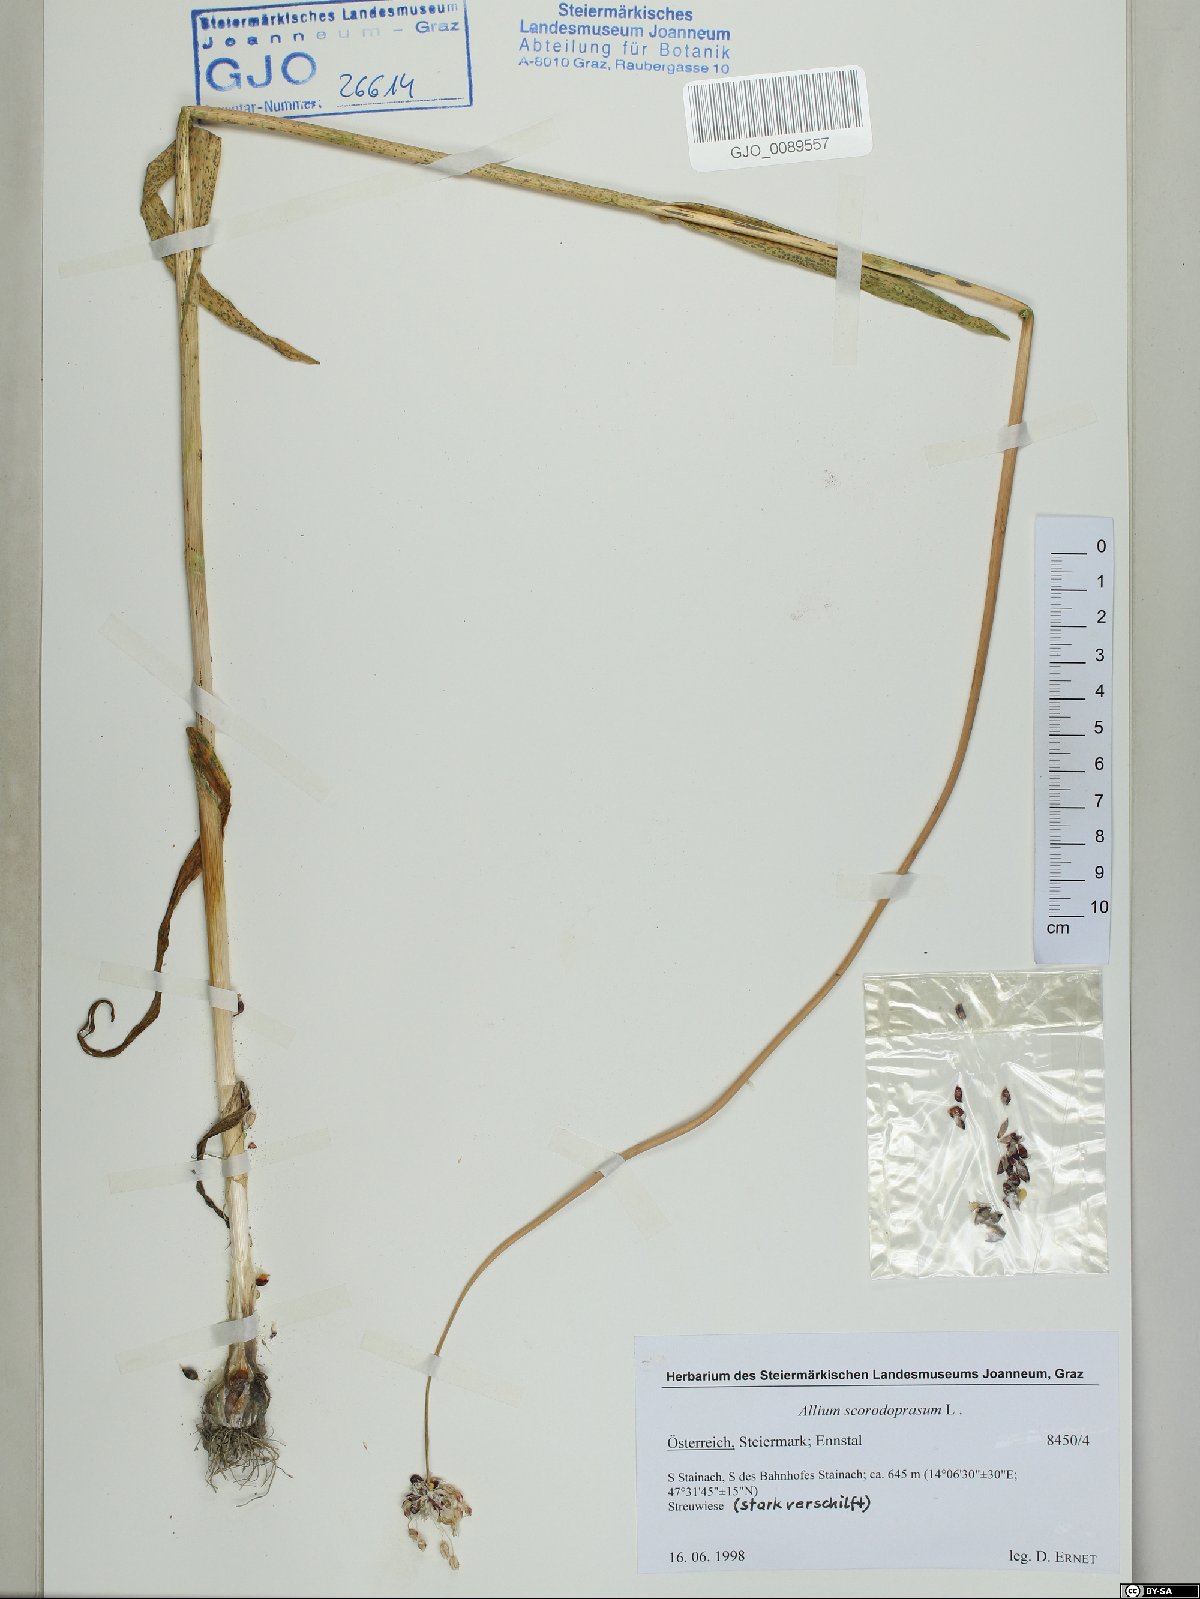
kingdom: Plantae
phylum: Tracheophyta
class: Liliopsida
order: Asparagales
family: Amaryllidaceae
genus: Allium
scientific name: Allium scorodoprasum
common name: Sand leek
